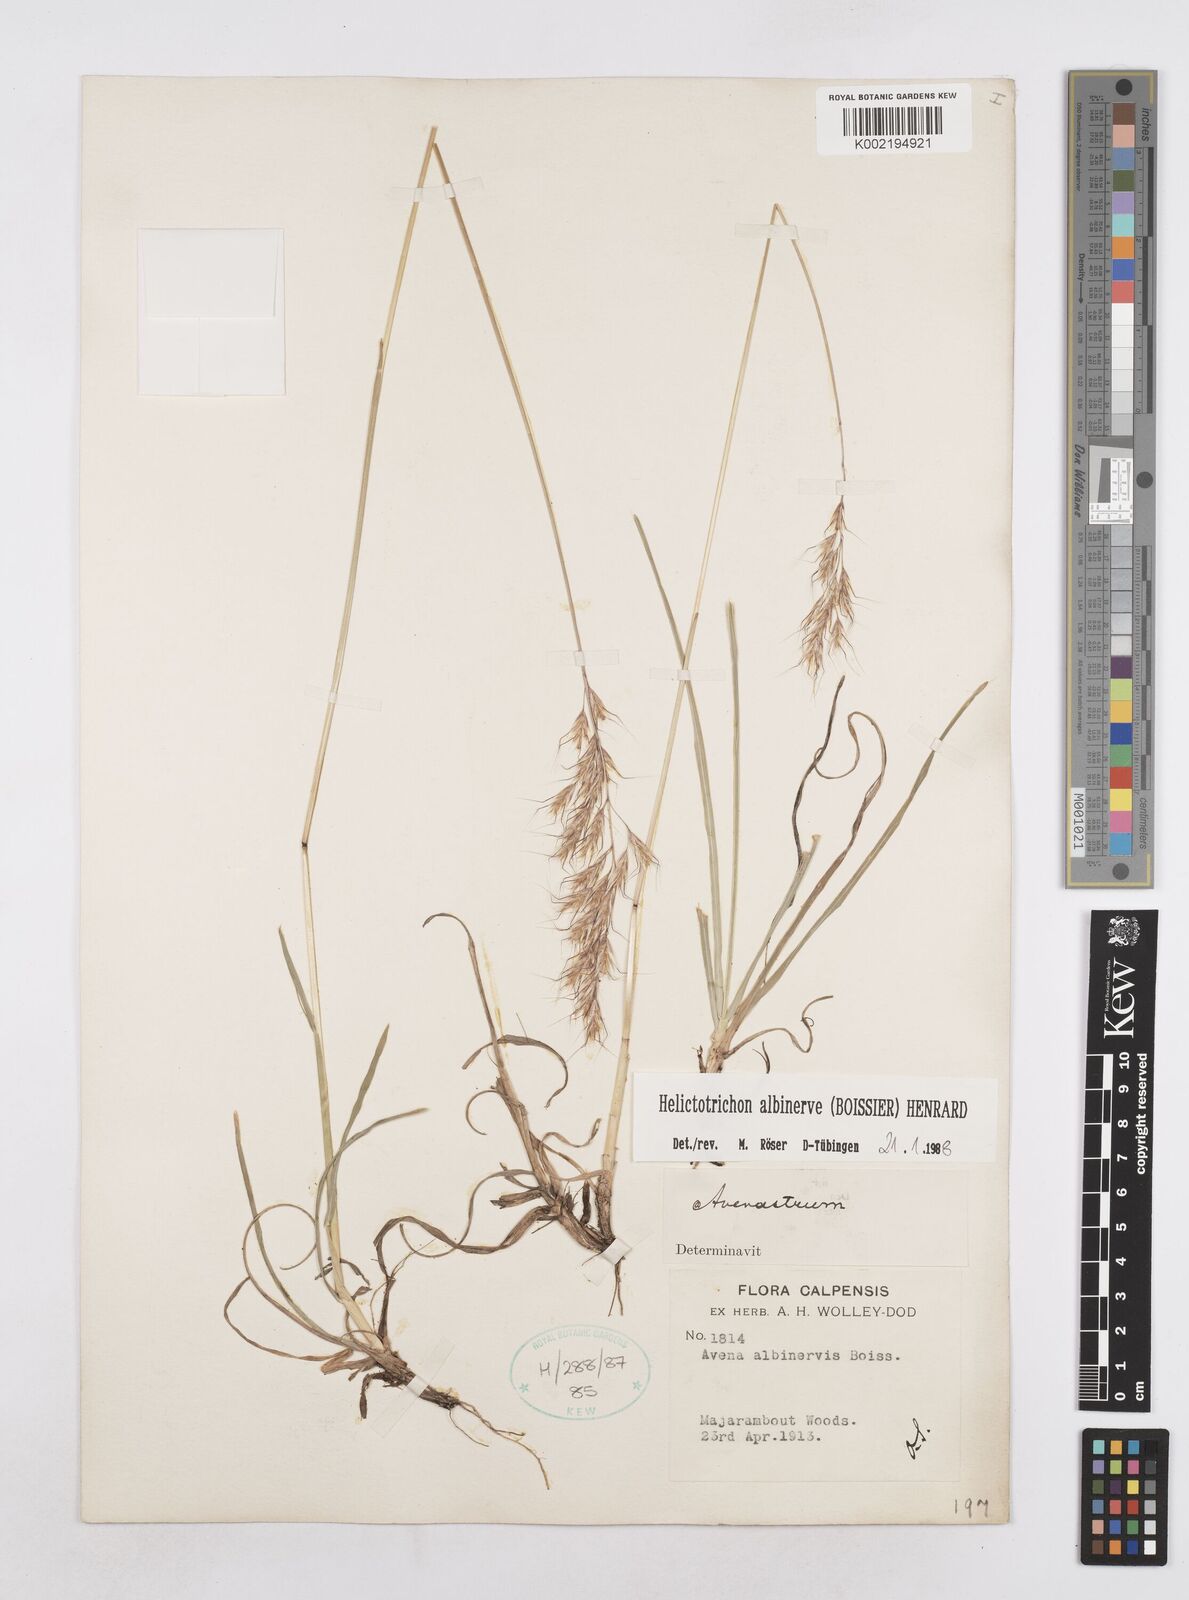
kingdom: Plantae
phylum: Tracheophyta
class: Liliopsida
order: Poales
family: Poaceae
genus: Helictochloa
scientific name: Helictochloa albinervis
